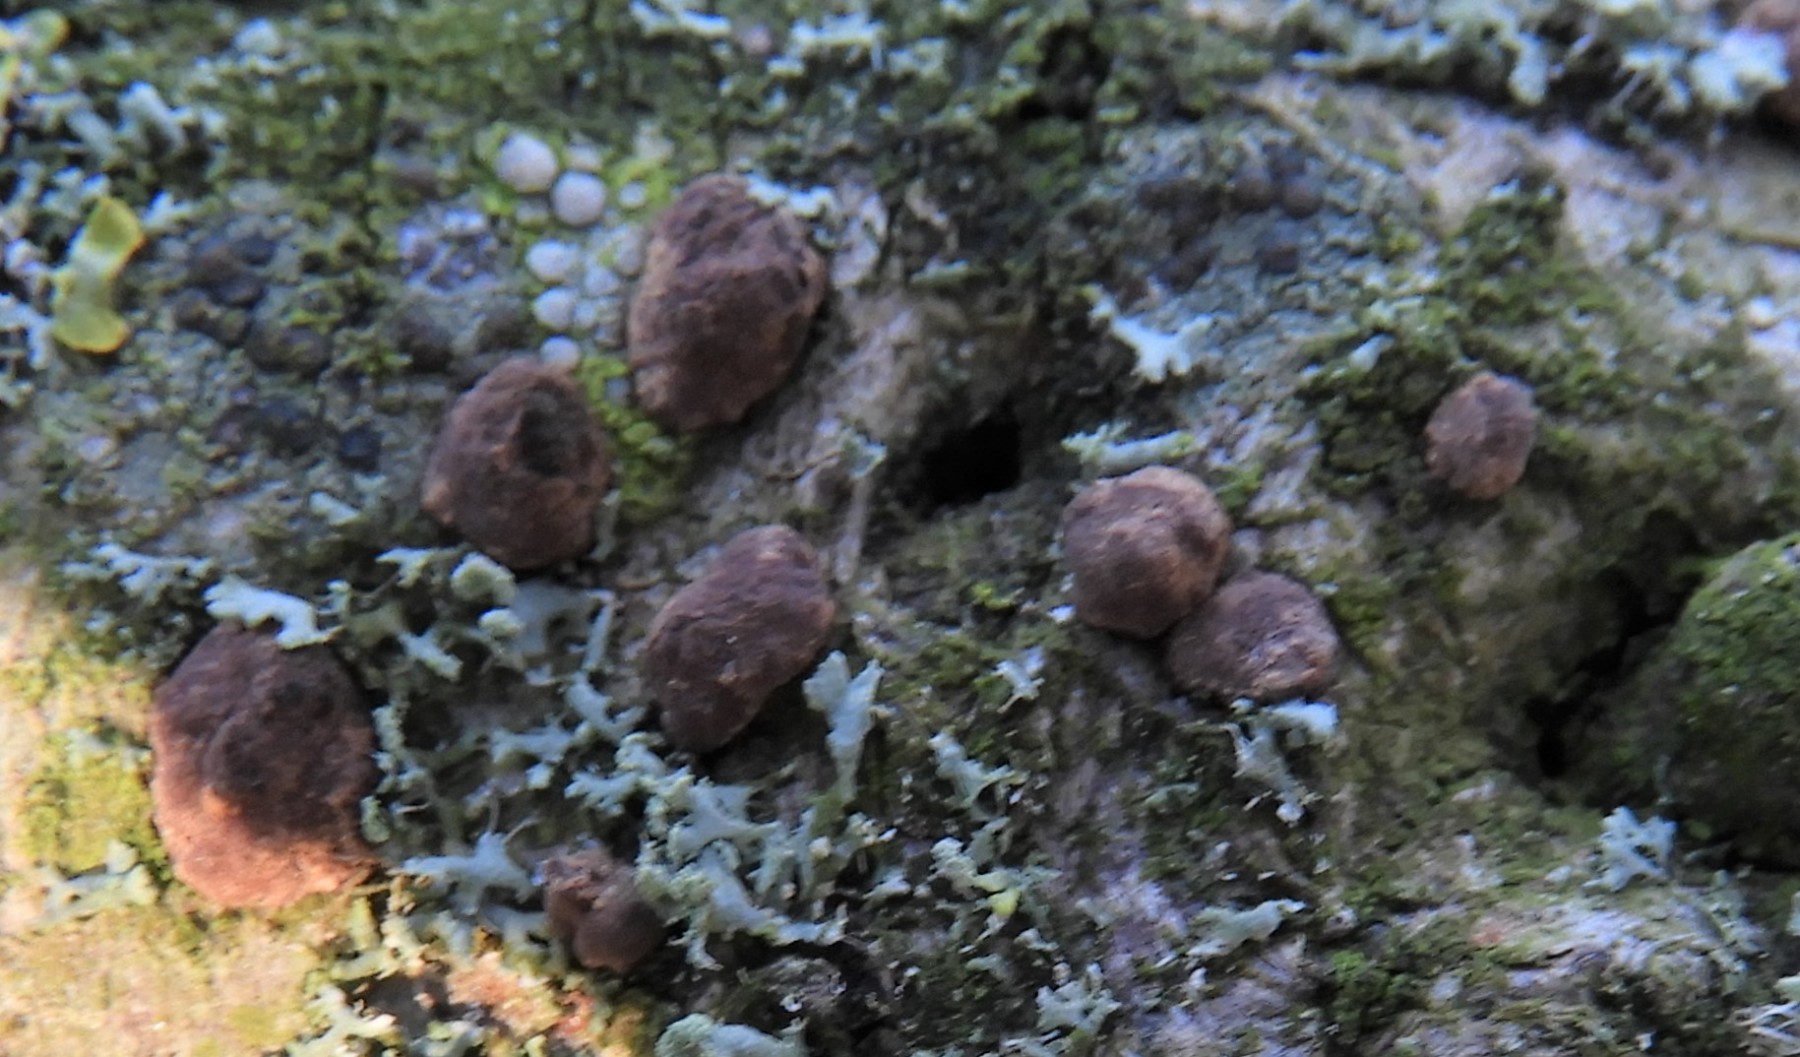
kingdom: Fungi
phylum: Ascomycota
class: Sordariomycetes
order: Xylariales
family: Hypoxylaceae
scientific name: Hypoxylaceae
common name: kulbærfamilien
